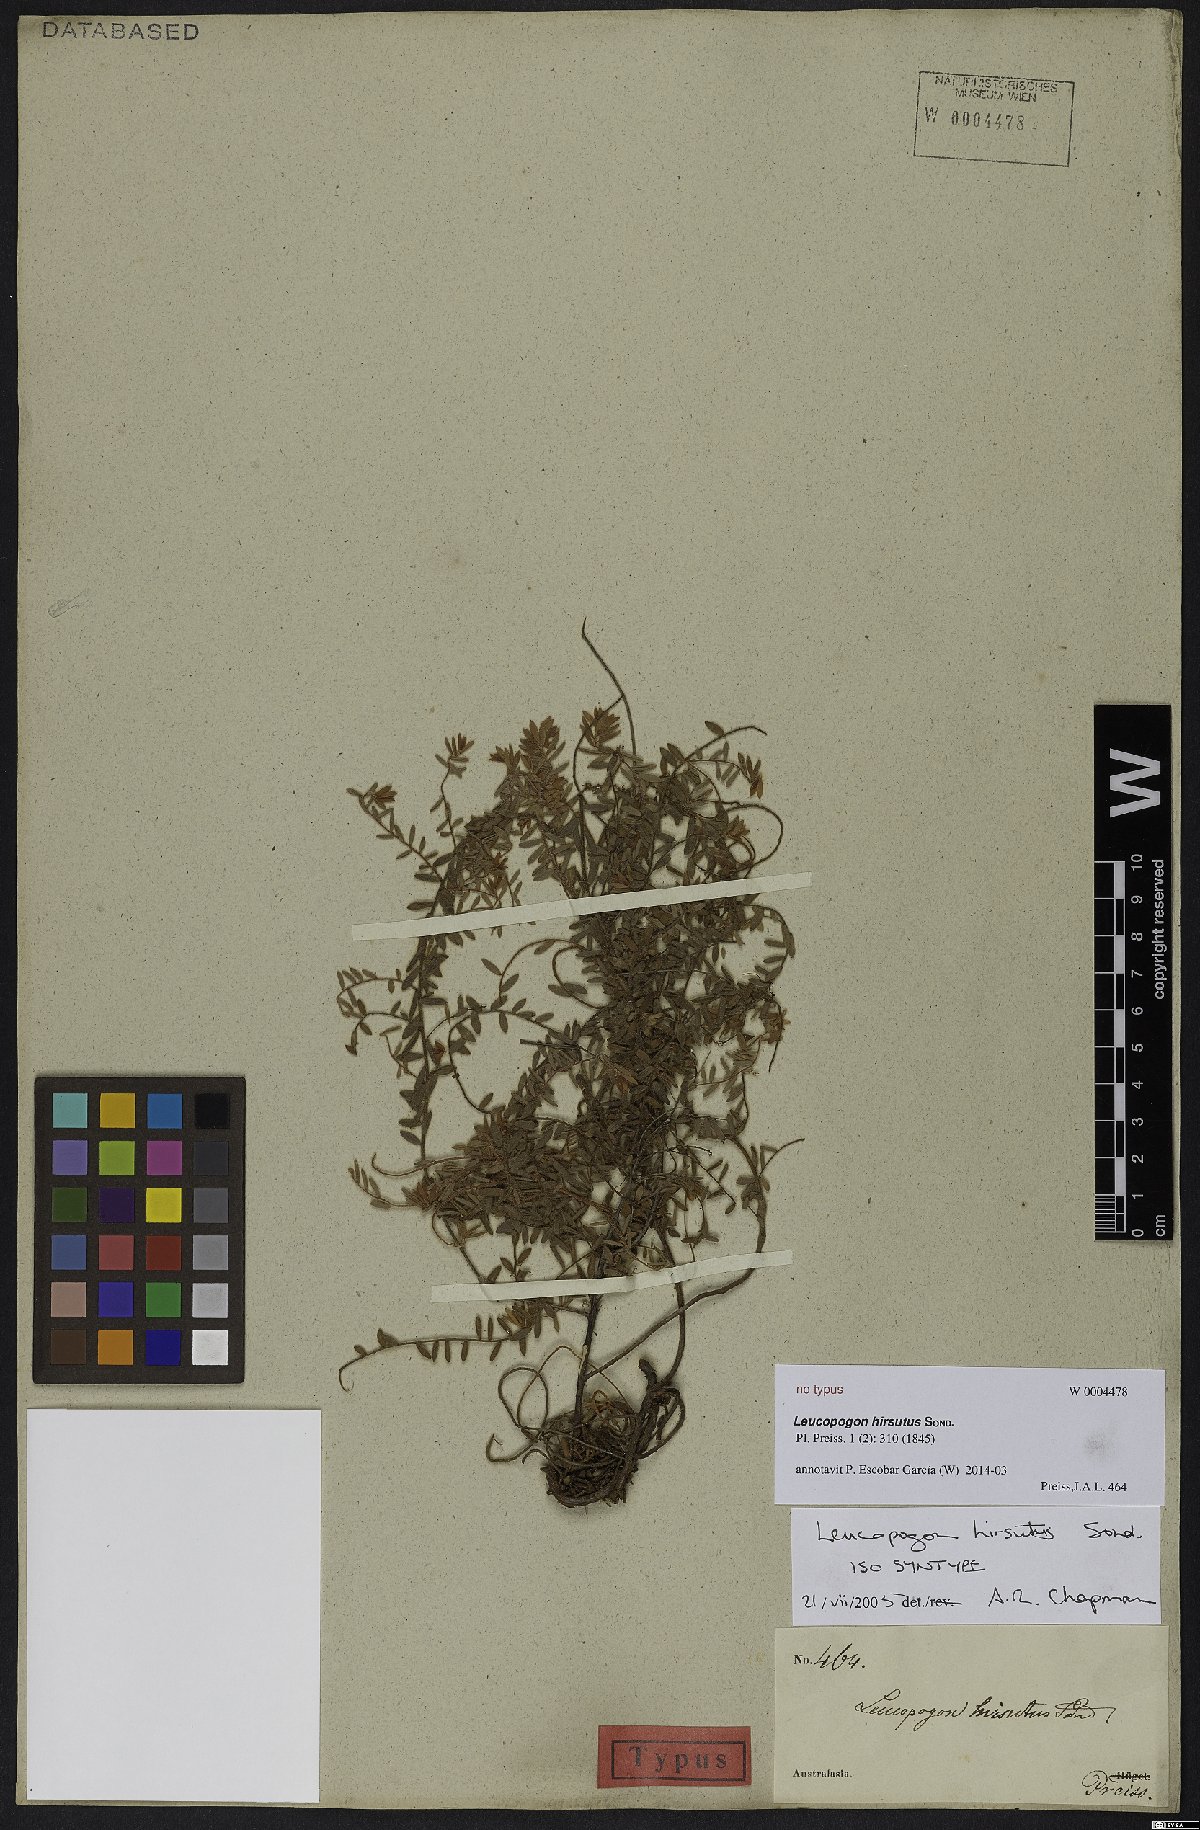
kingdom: Plantae
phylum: Tracheophyta
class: Magnoliopsida
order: Ericales
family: Ericaceae
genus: Leucopogon
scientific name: Leucopogon hirsutus
